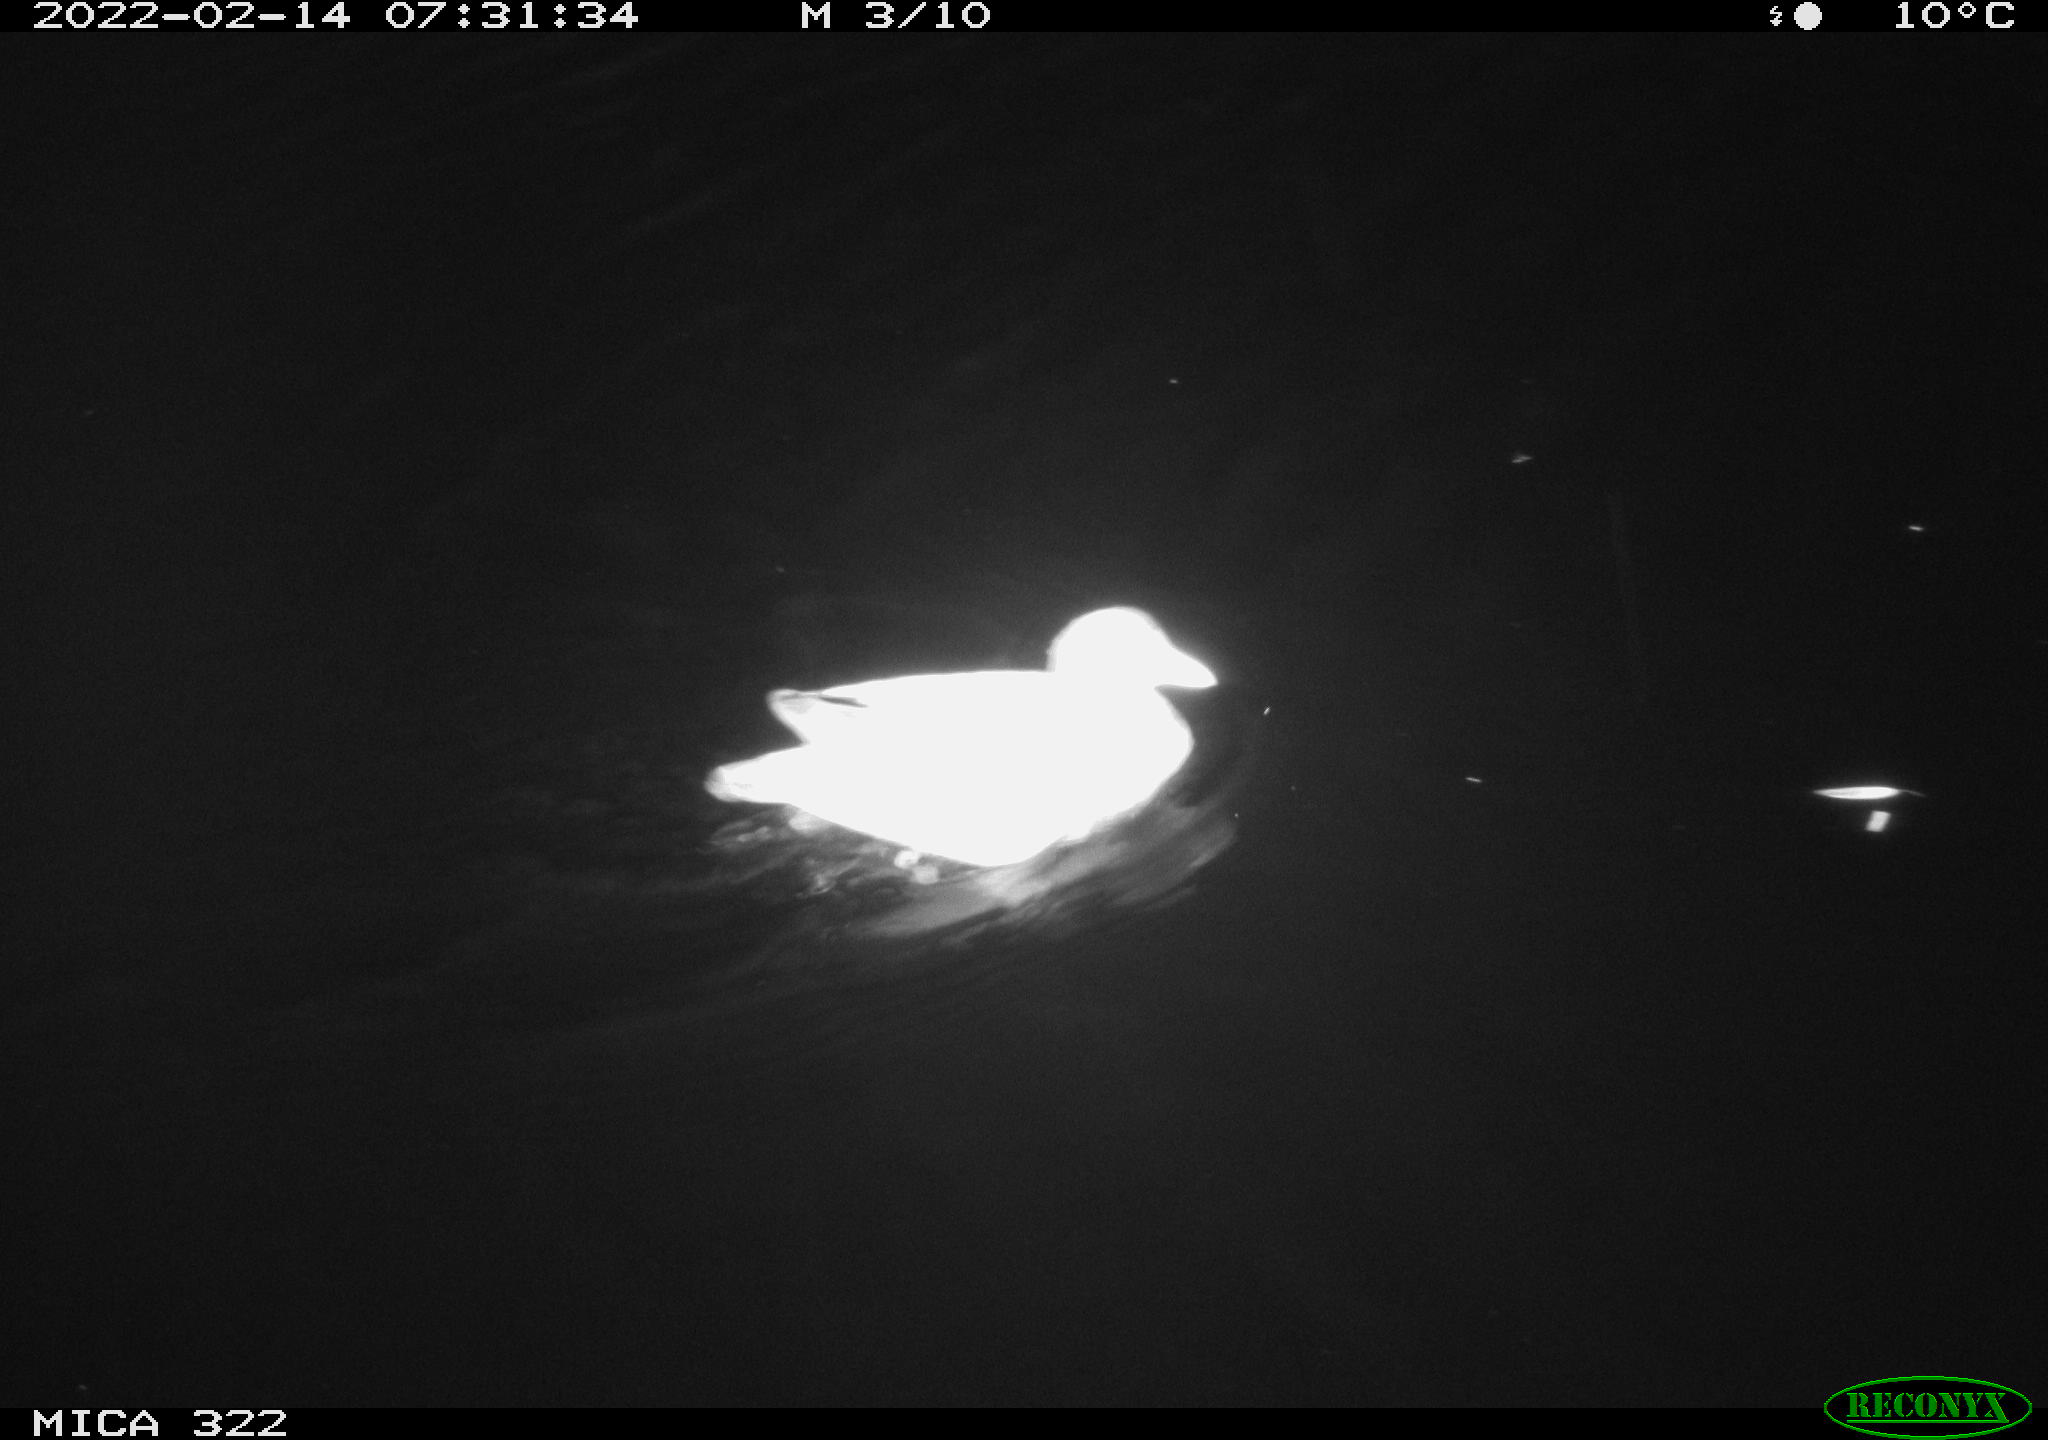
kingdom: Animalia
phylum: Chordata
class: Aves
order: Gruiformes
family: Rallidae
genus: Gallinula
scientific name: Gallinula chloropus
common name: Common moorhen
